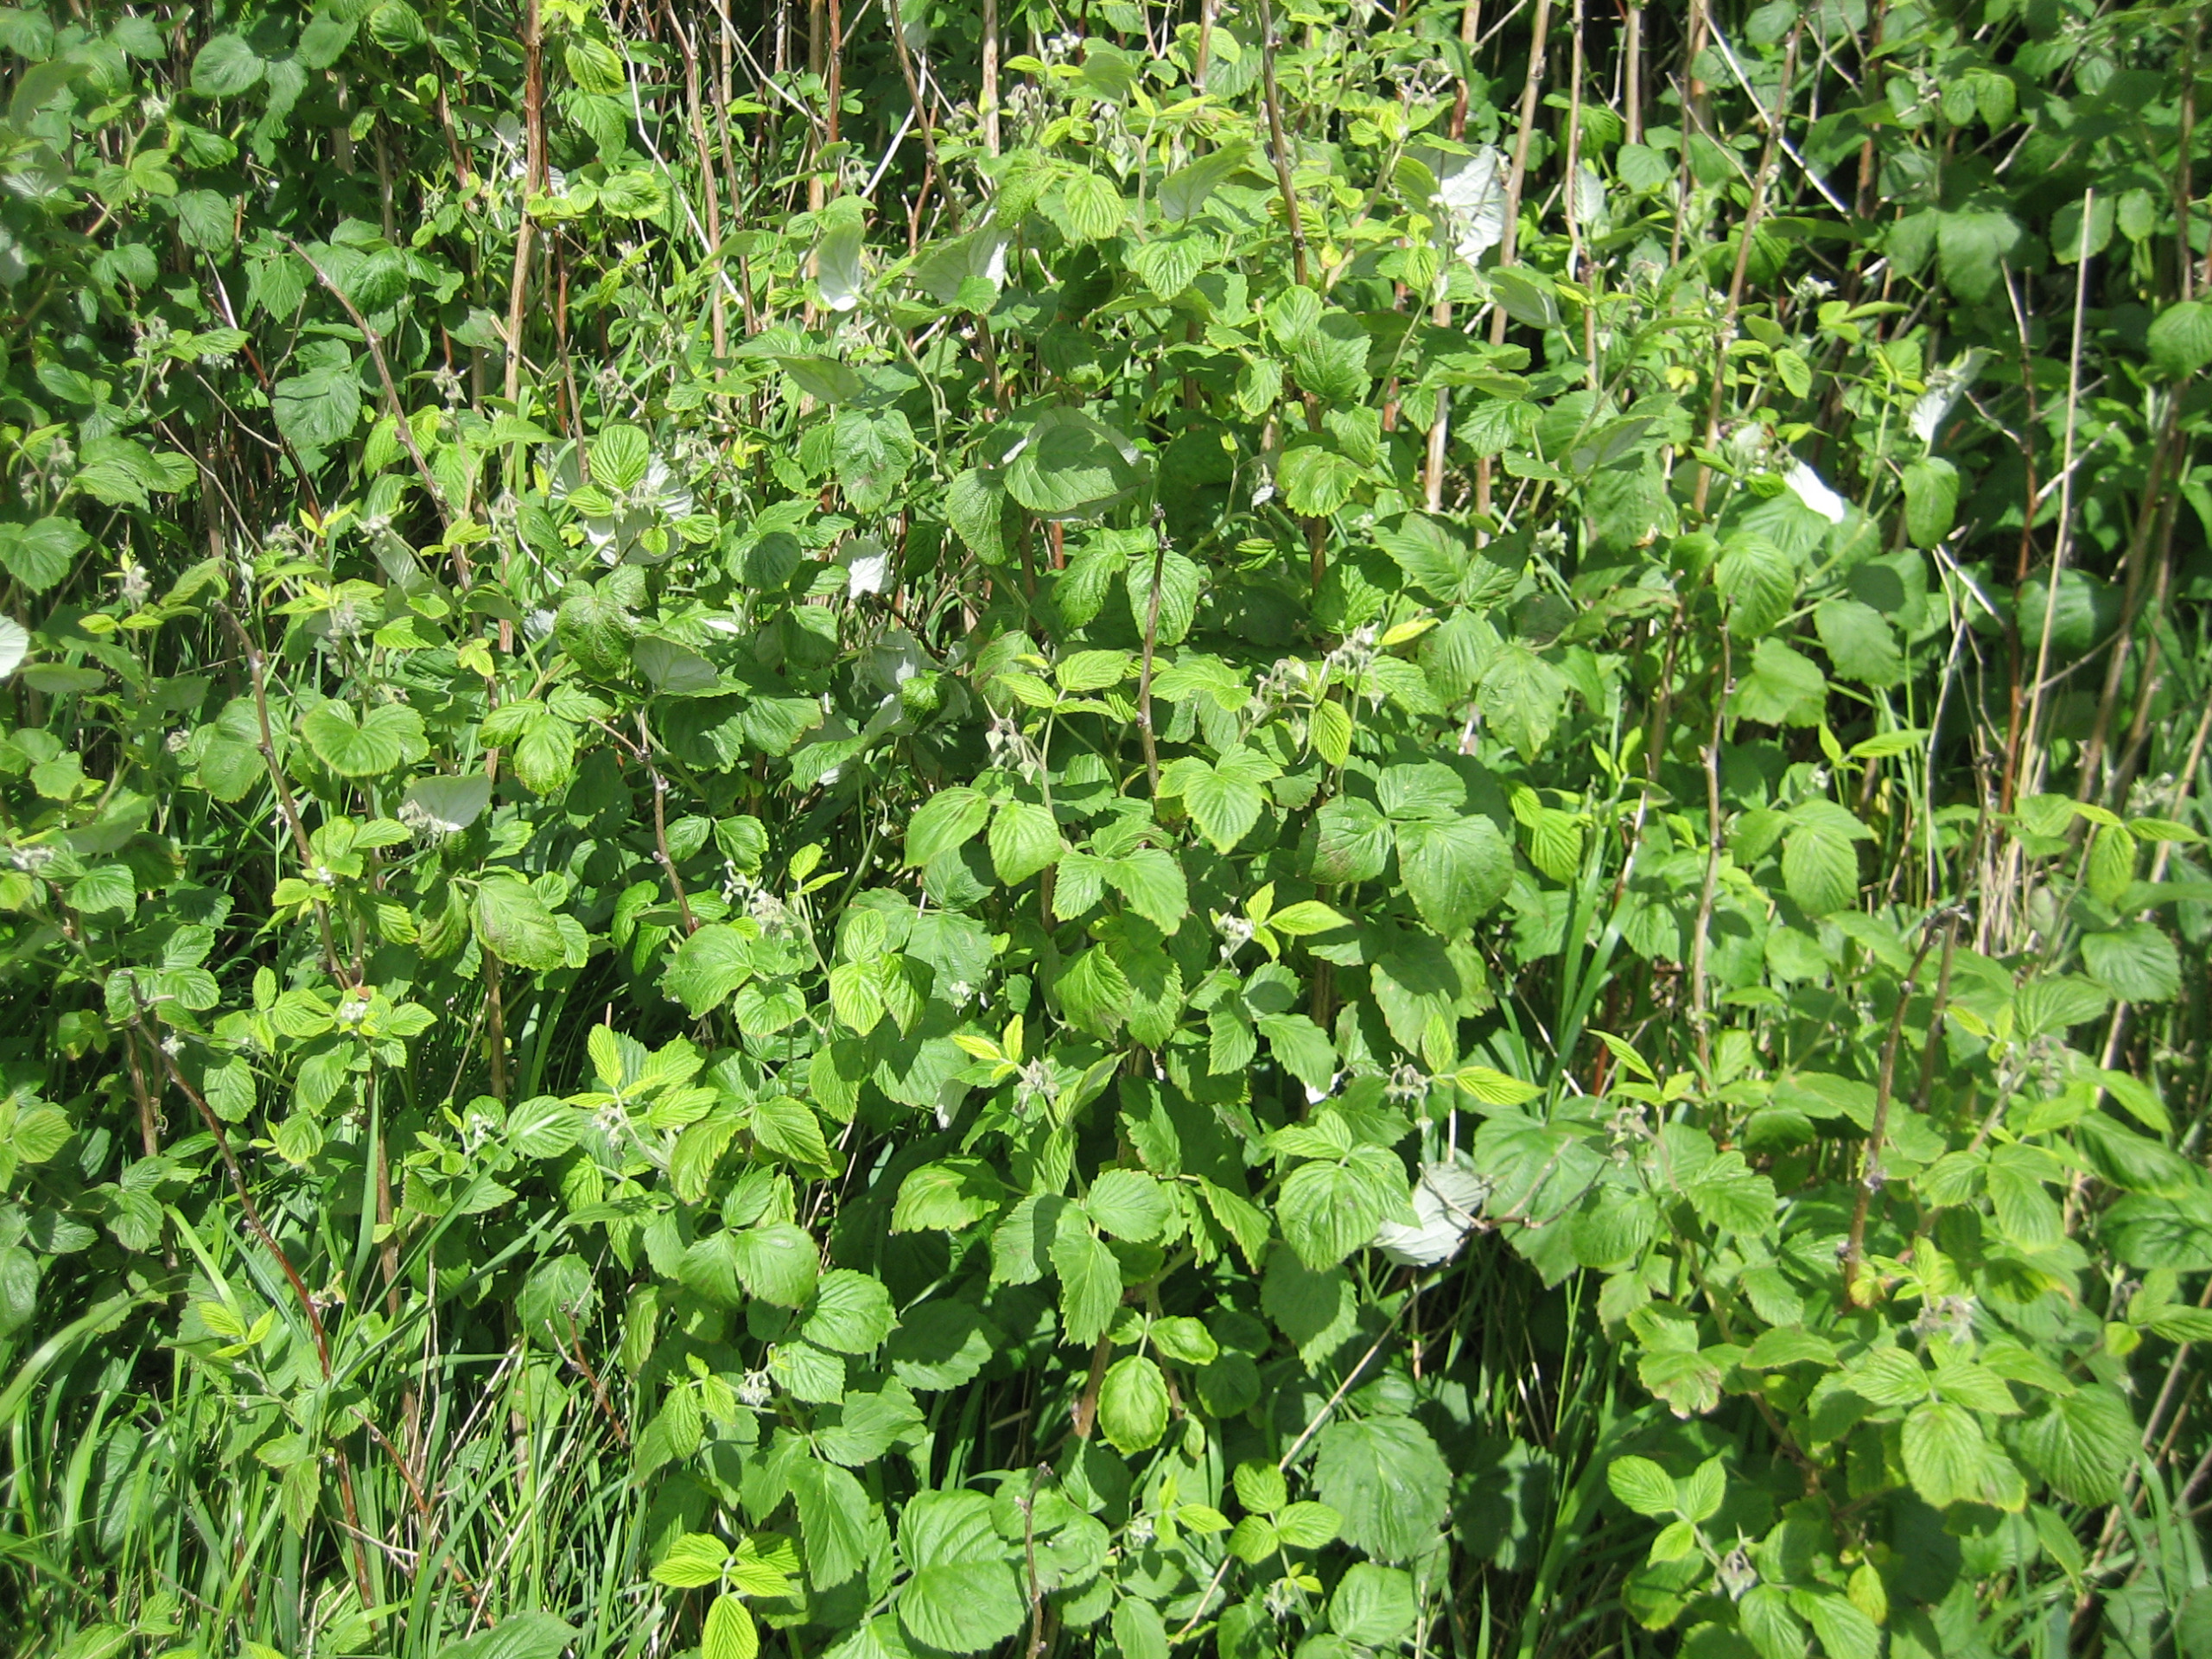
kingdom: Plantae
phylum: Tracheophyta
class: Magnoliopsida
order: Rosales
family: Rosaceae
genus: Rubus
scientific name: Rubus idaeus
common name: Hindbær
